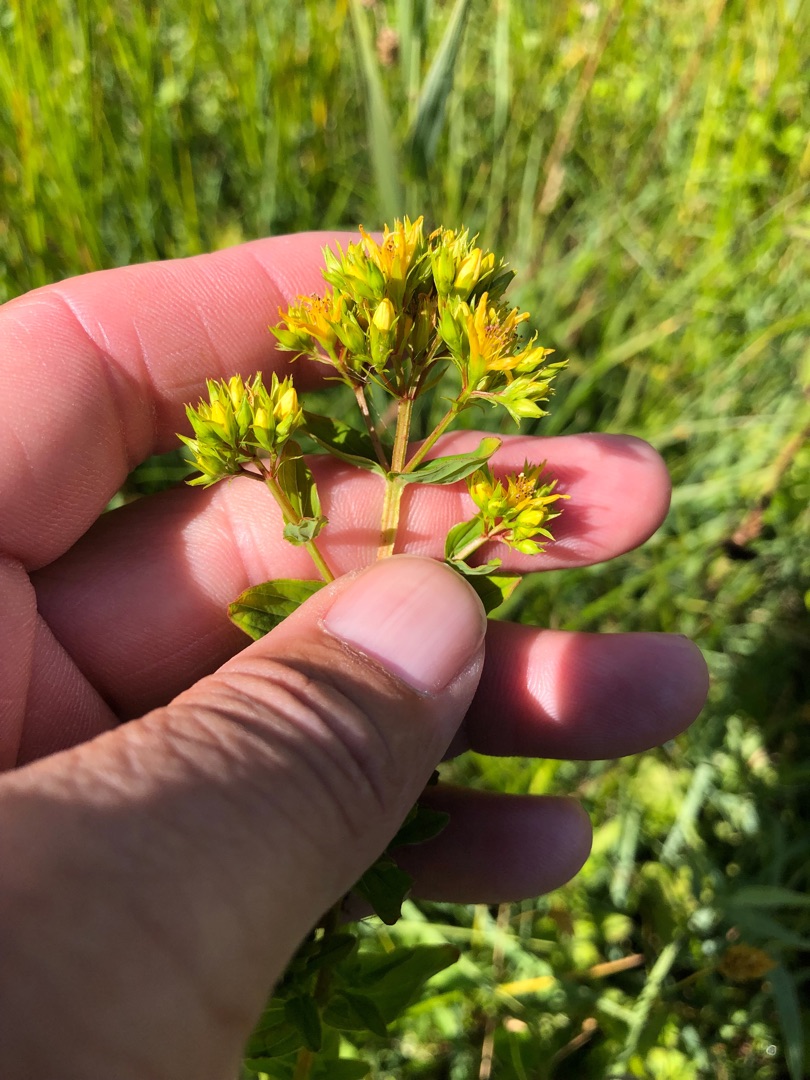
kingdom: Plantae
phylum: Tracheophyta
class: Magnoliopsida
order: Malpighiales
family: Hypericaceae
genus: Hypericum
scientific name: Hypericum tetrapterum
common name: Vinget perikon
